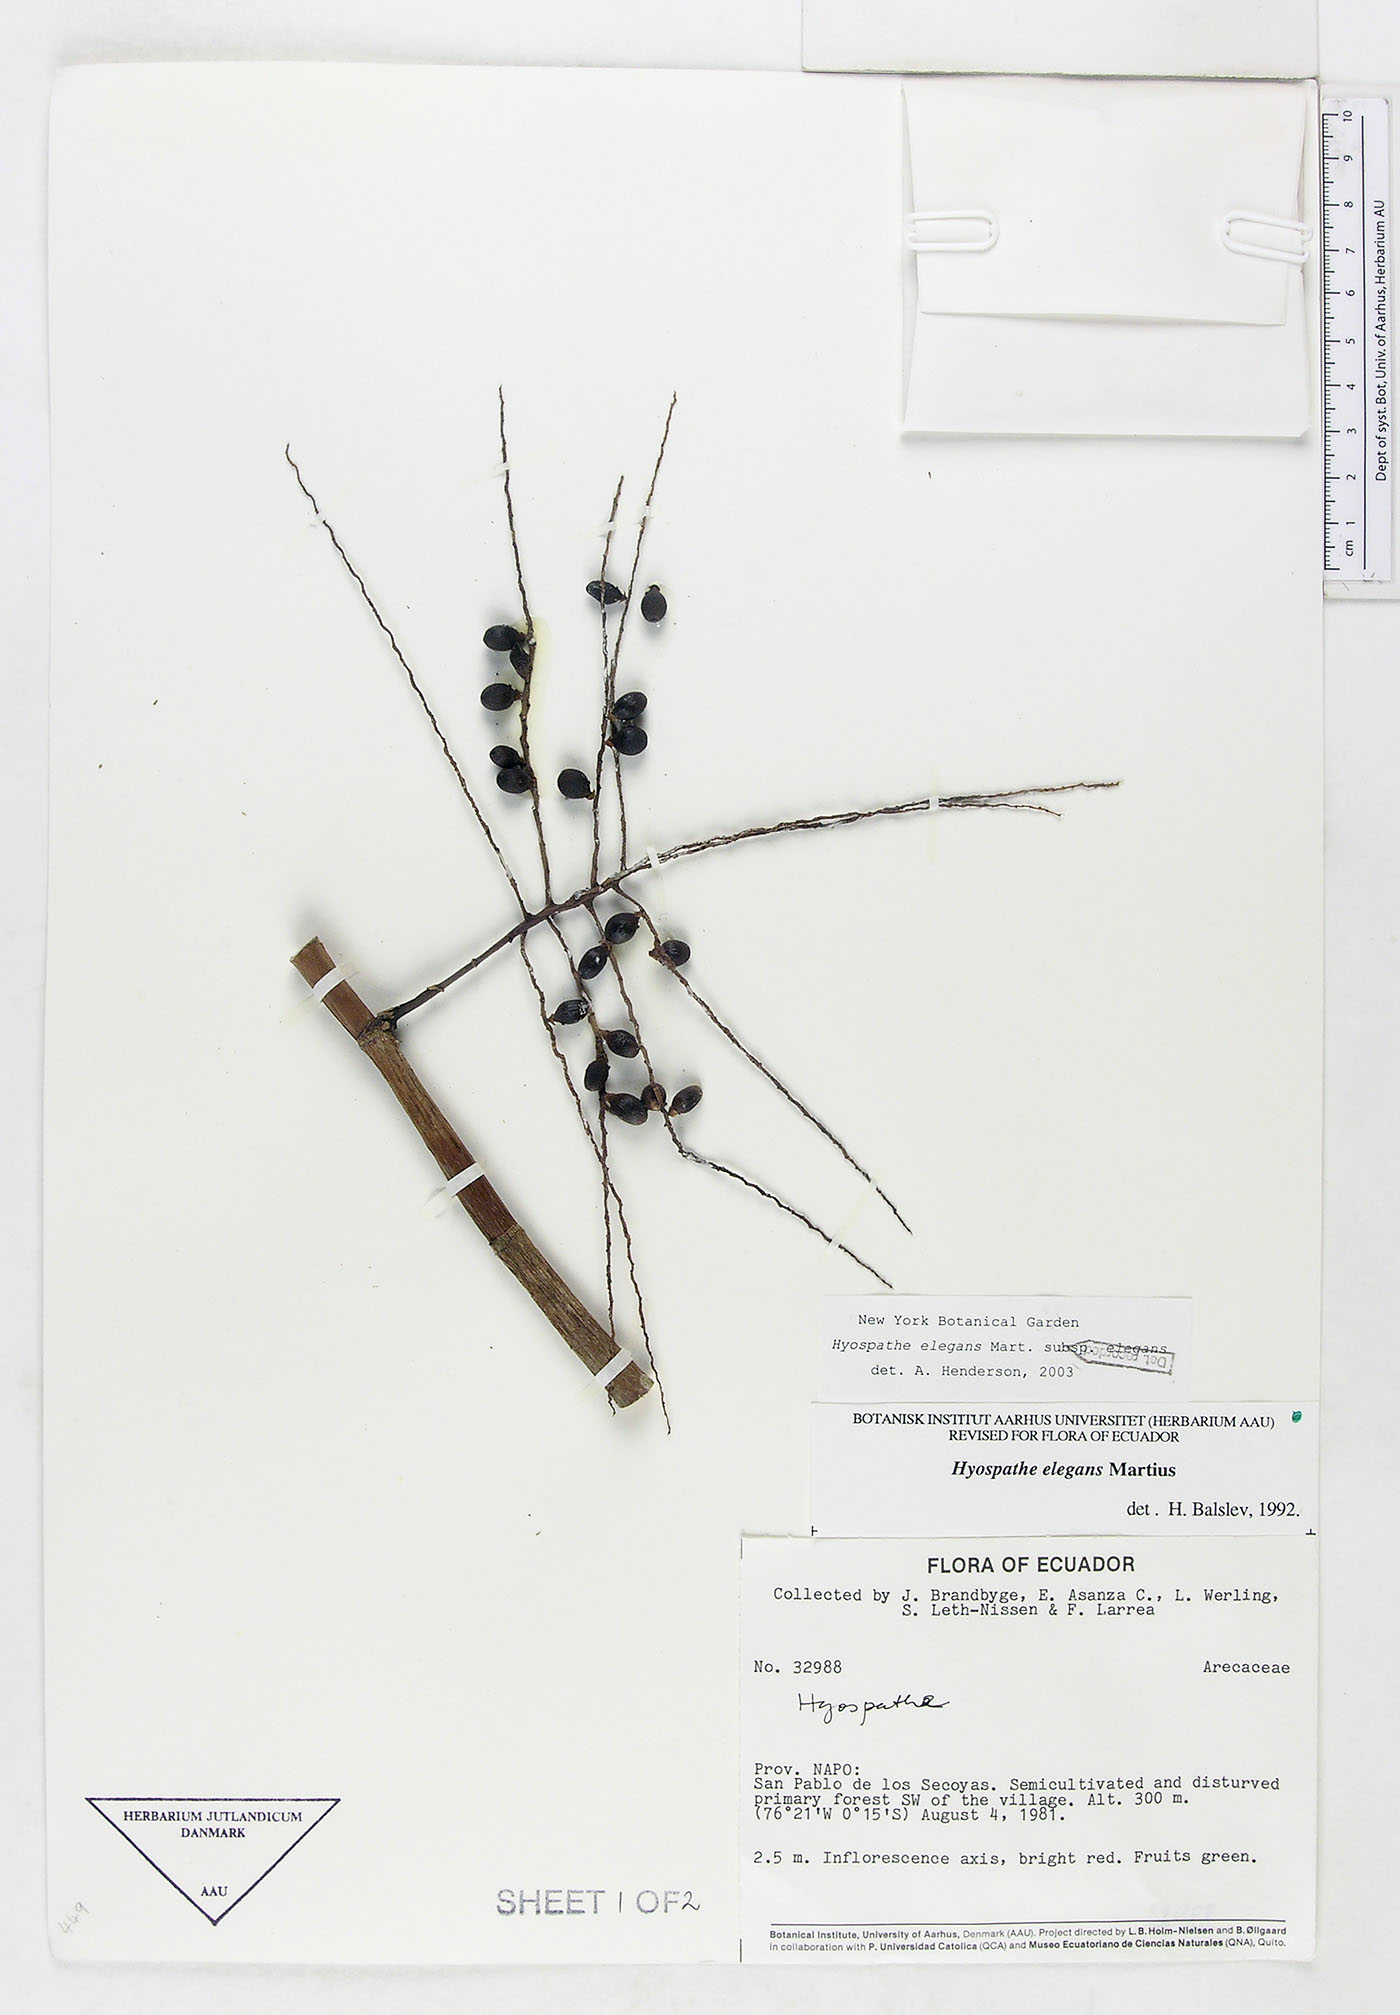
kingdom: Plantae
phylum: Tracheophyta
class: Liliopsida
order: Arecales
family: Arecaceae
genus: Hyospathe
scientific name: Hyospathe elegans
